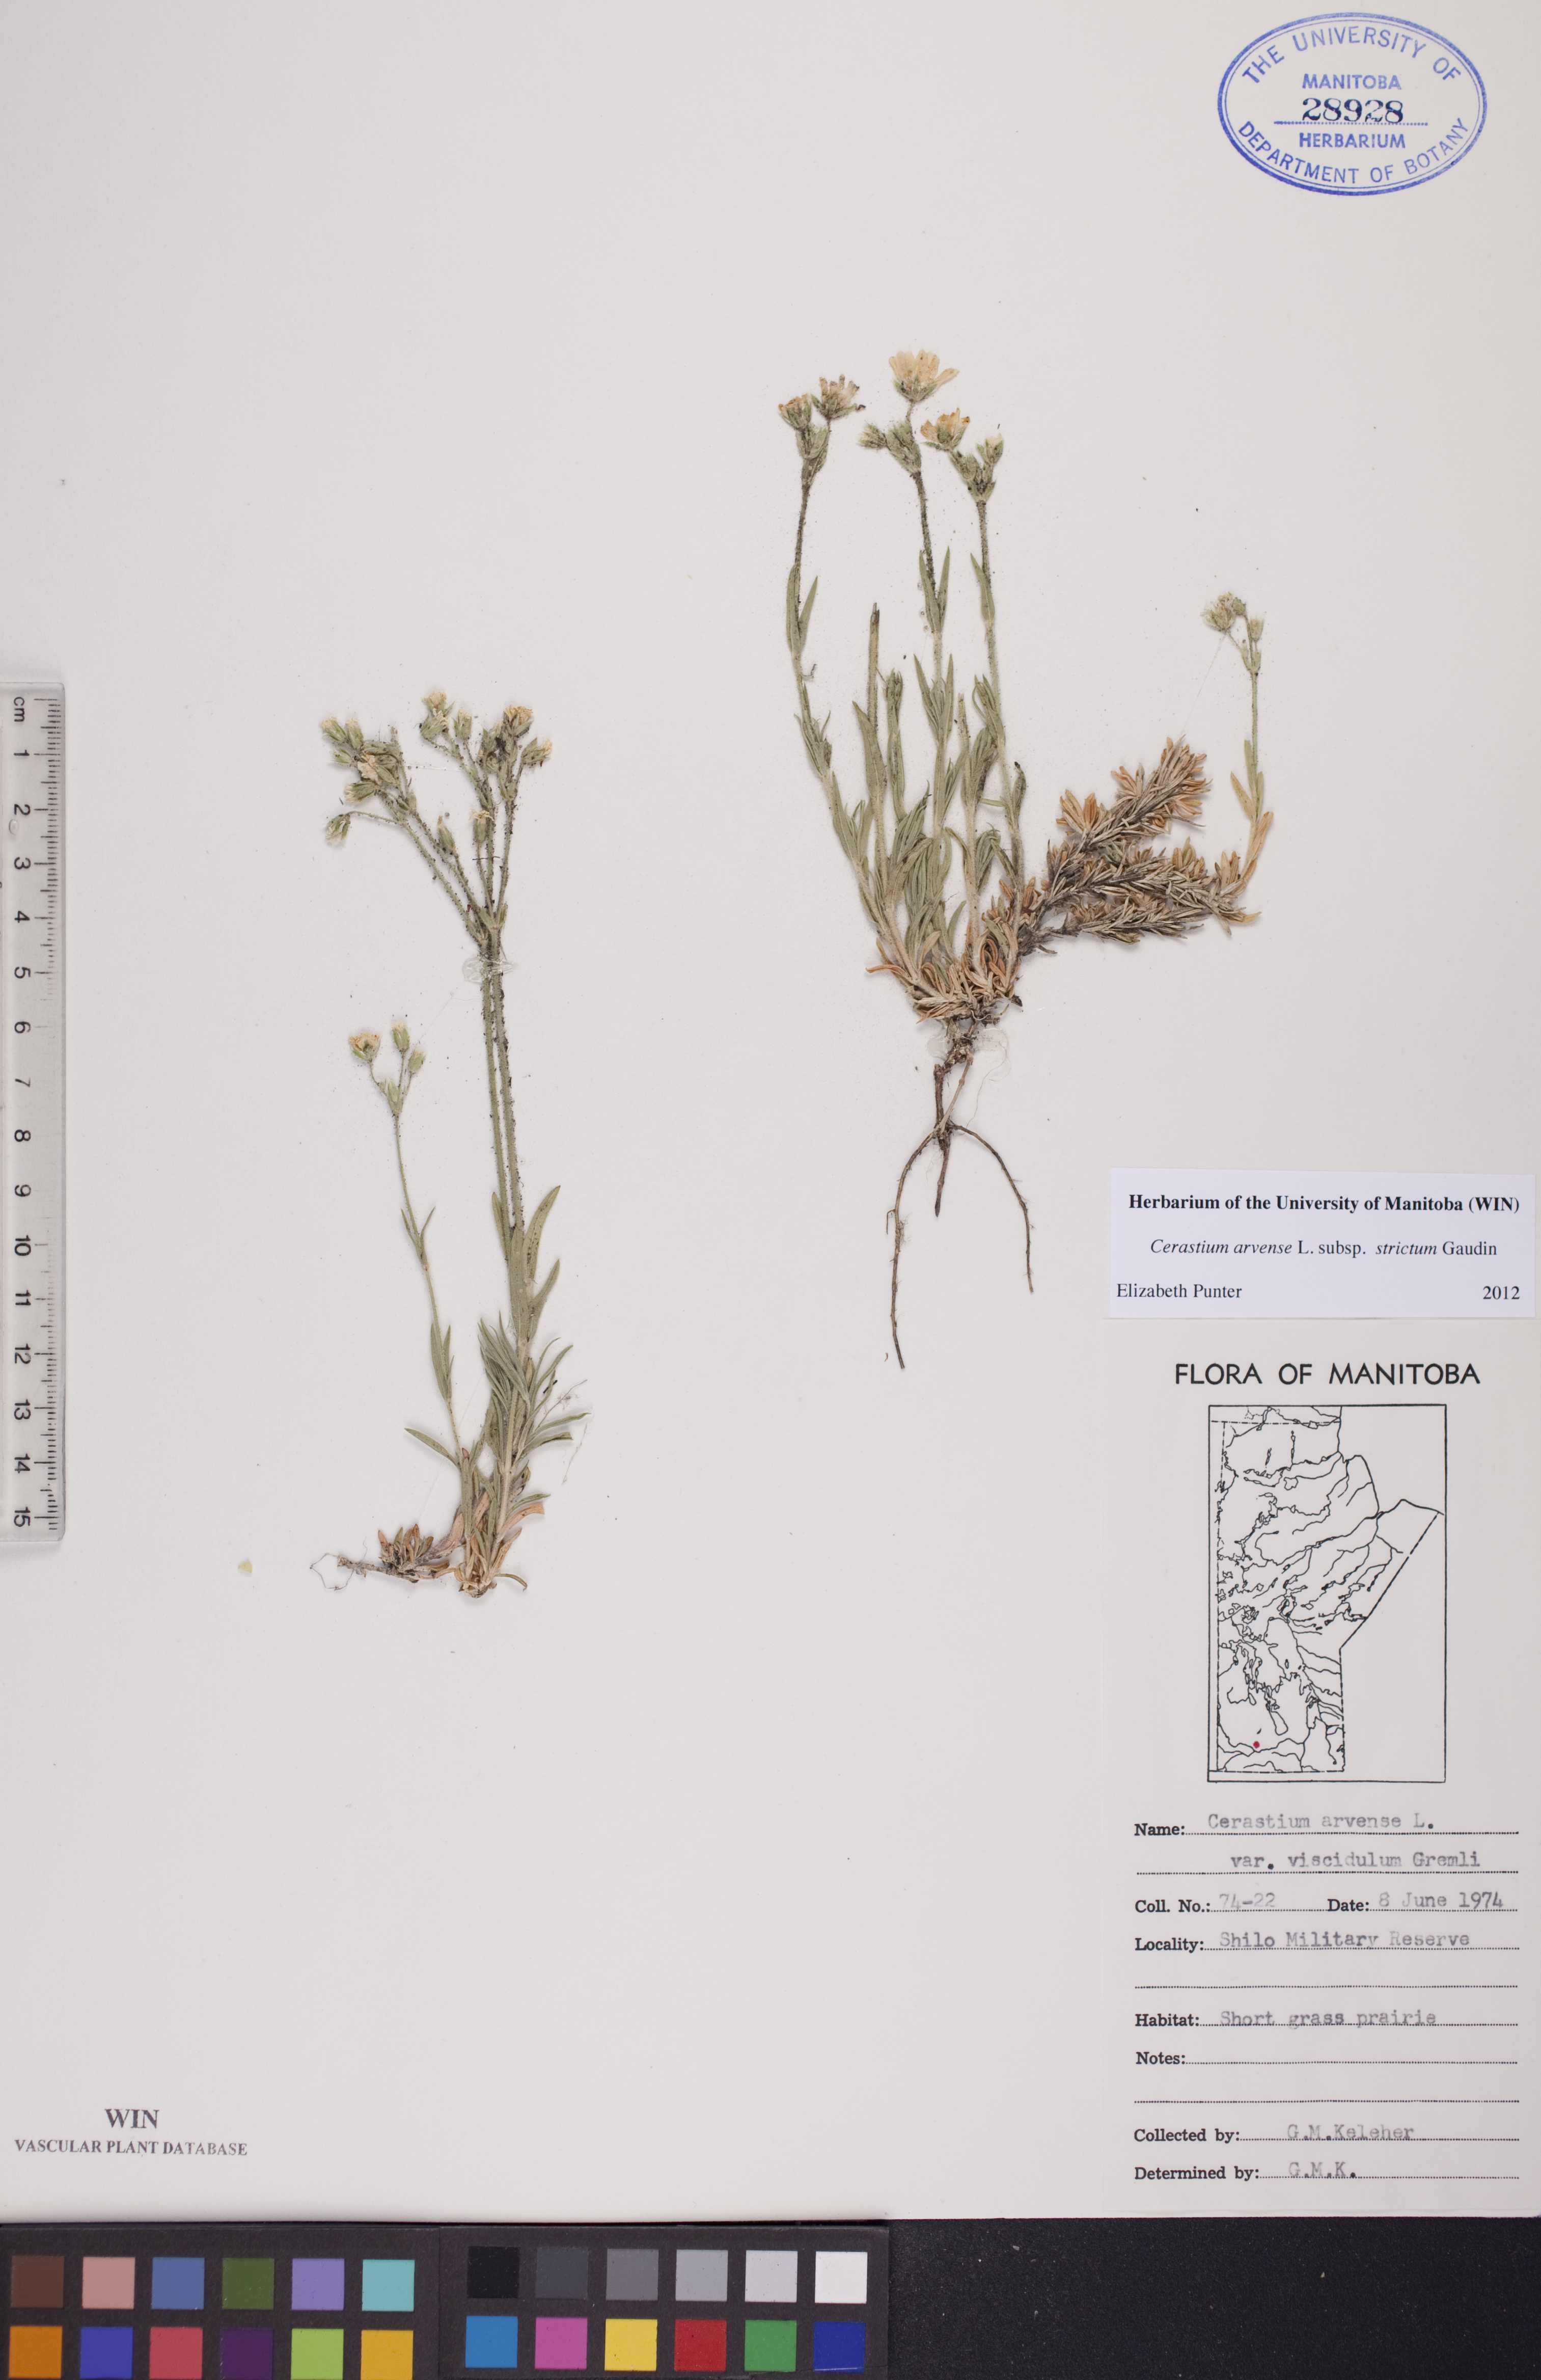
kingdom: Plantae
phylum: Tracheophyta
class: Magnoliopsida
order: Caryophyllales
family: Caryophyllaceae
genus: Cerastium
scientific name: Cerastium elongatum
